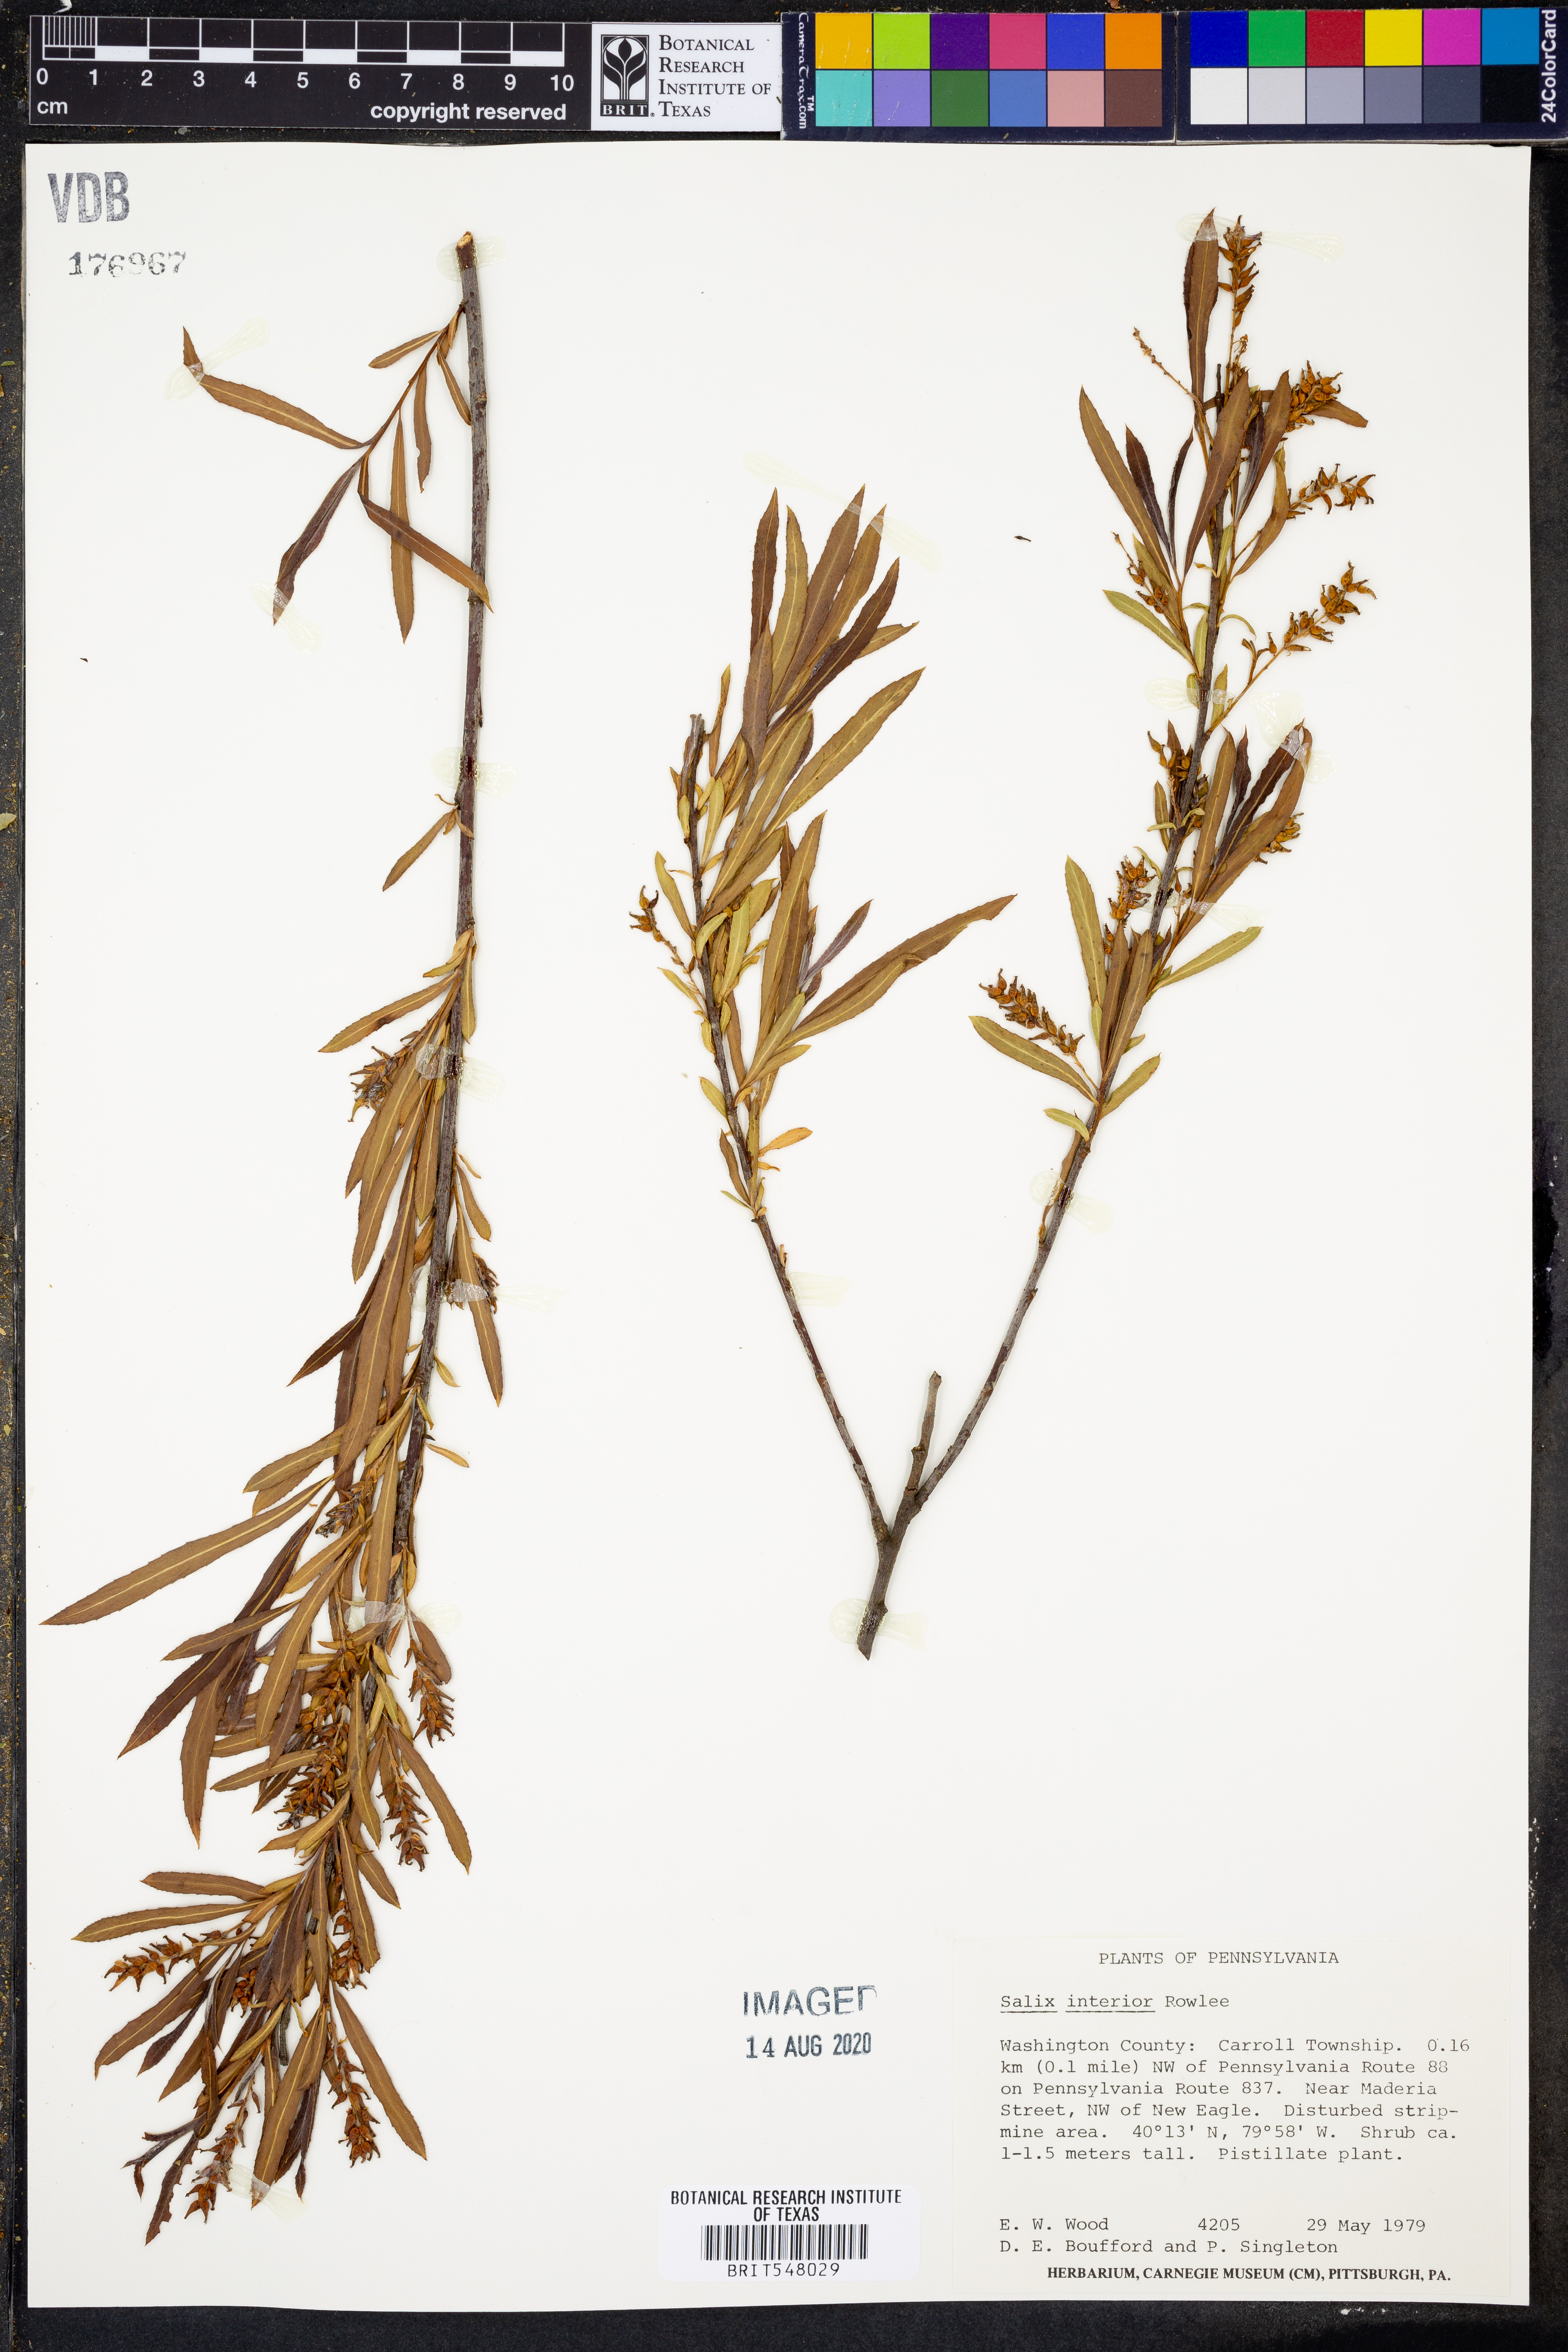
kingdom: Plantae
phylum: Tracheophyta
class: Magnoliopsida
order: Malpighiales
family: Salicaceae
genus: Salix
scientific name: Salix interior
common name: Sandbar willow
